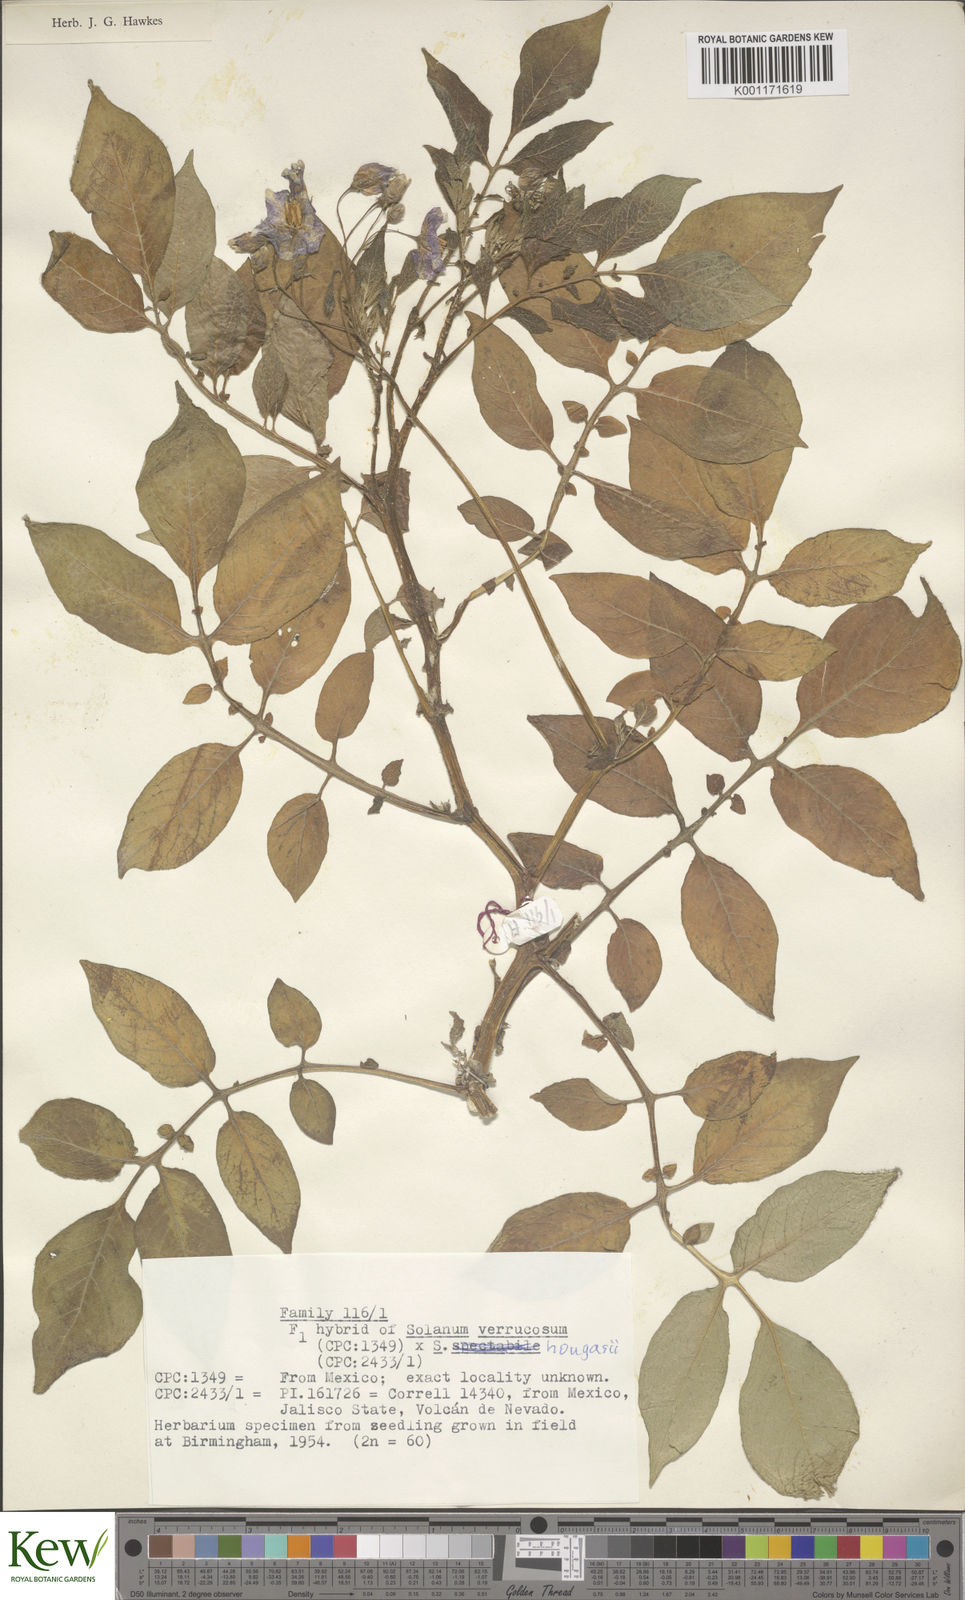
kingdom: Plantae
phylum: Tracheophyta
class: Magnoliopsida
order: Solanales
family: Solanaceae
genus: Solanum
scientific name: Solanum verrucosum
